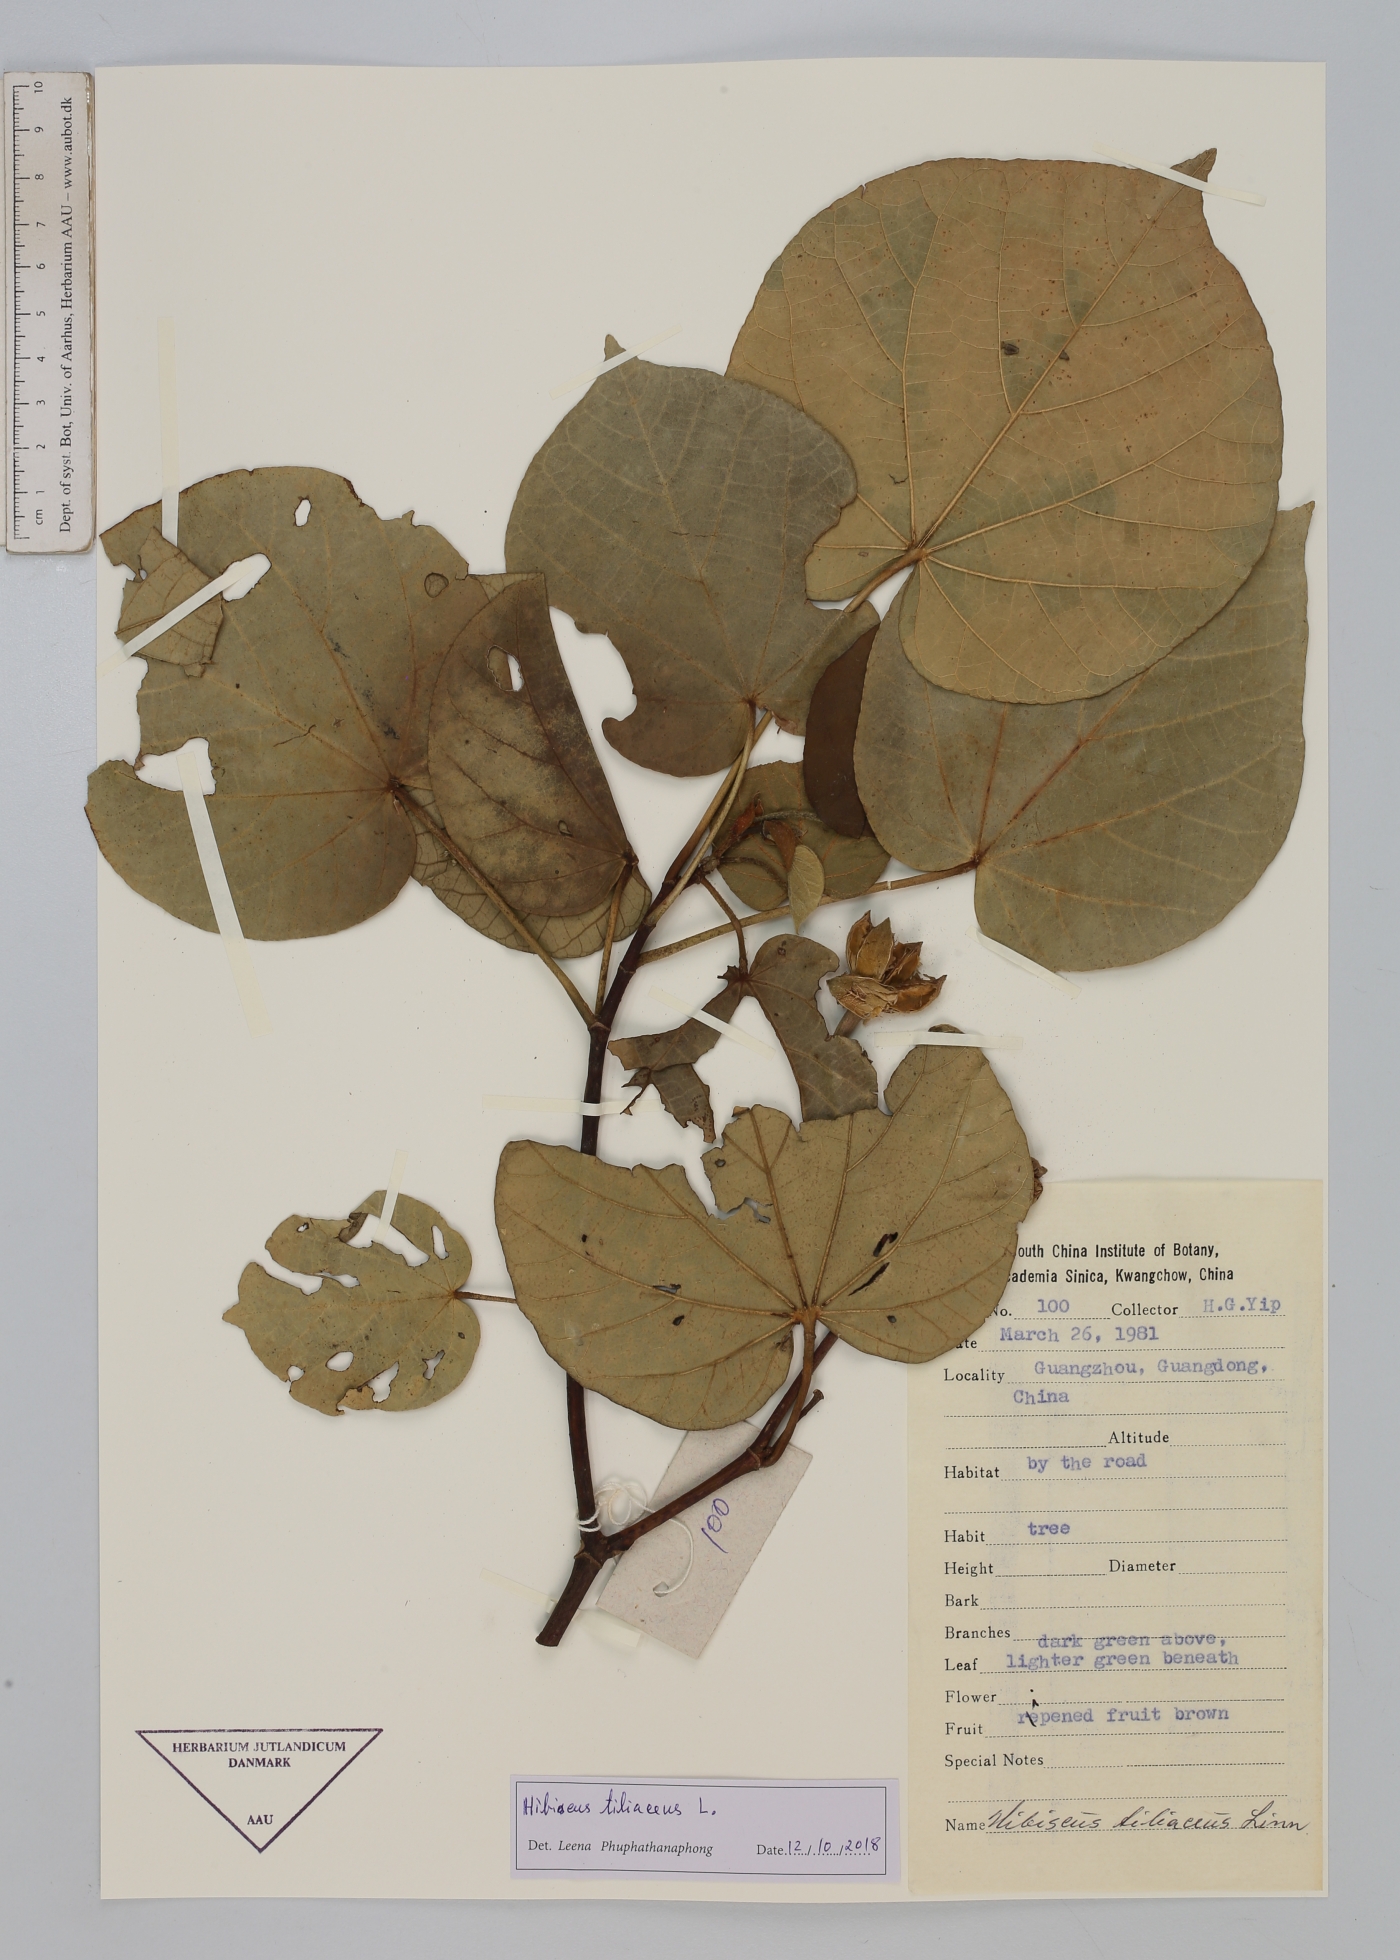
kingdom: Plantae
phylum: Tracheophyta
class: Magnoliopsida
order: Malvales
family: Malvaceae
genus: Talipariti
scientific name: Talipariti tiliaceum
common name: Sea hibiscus
